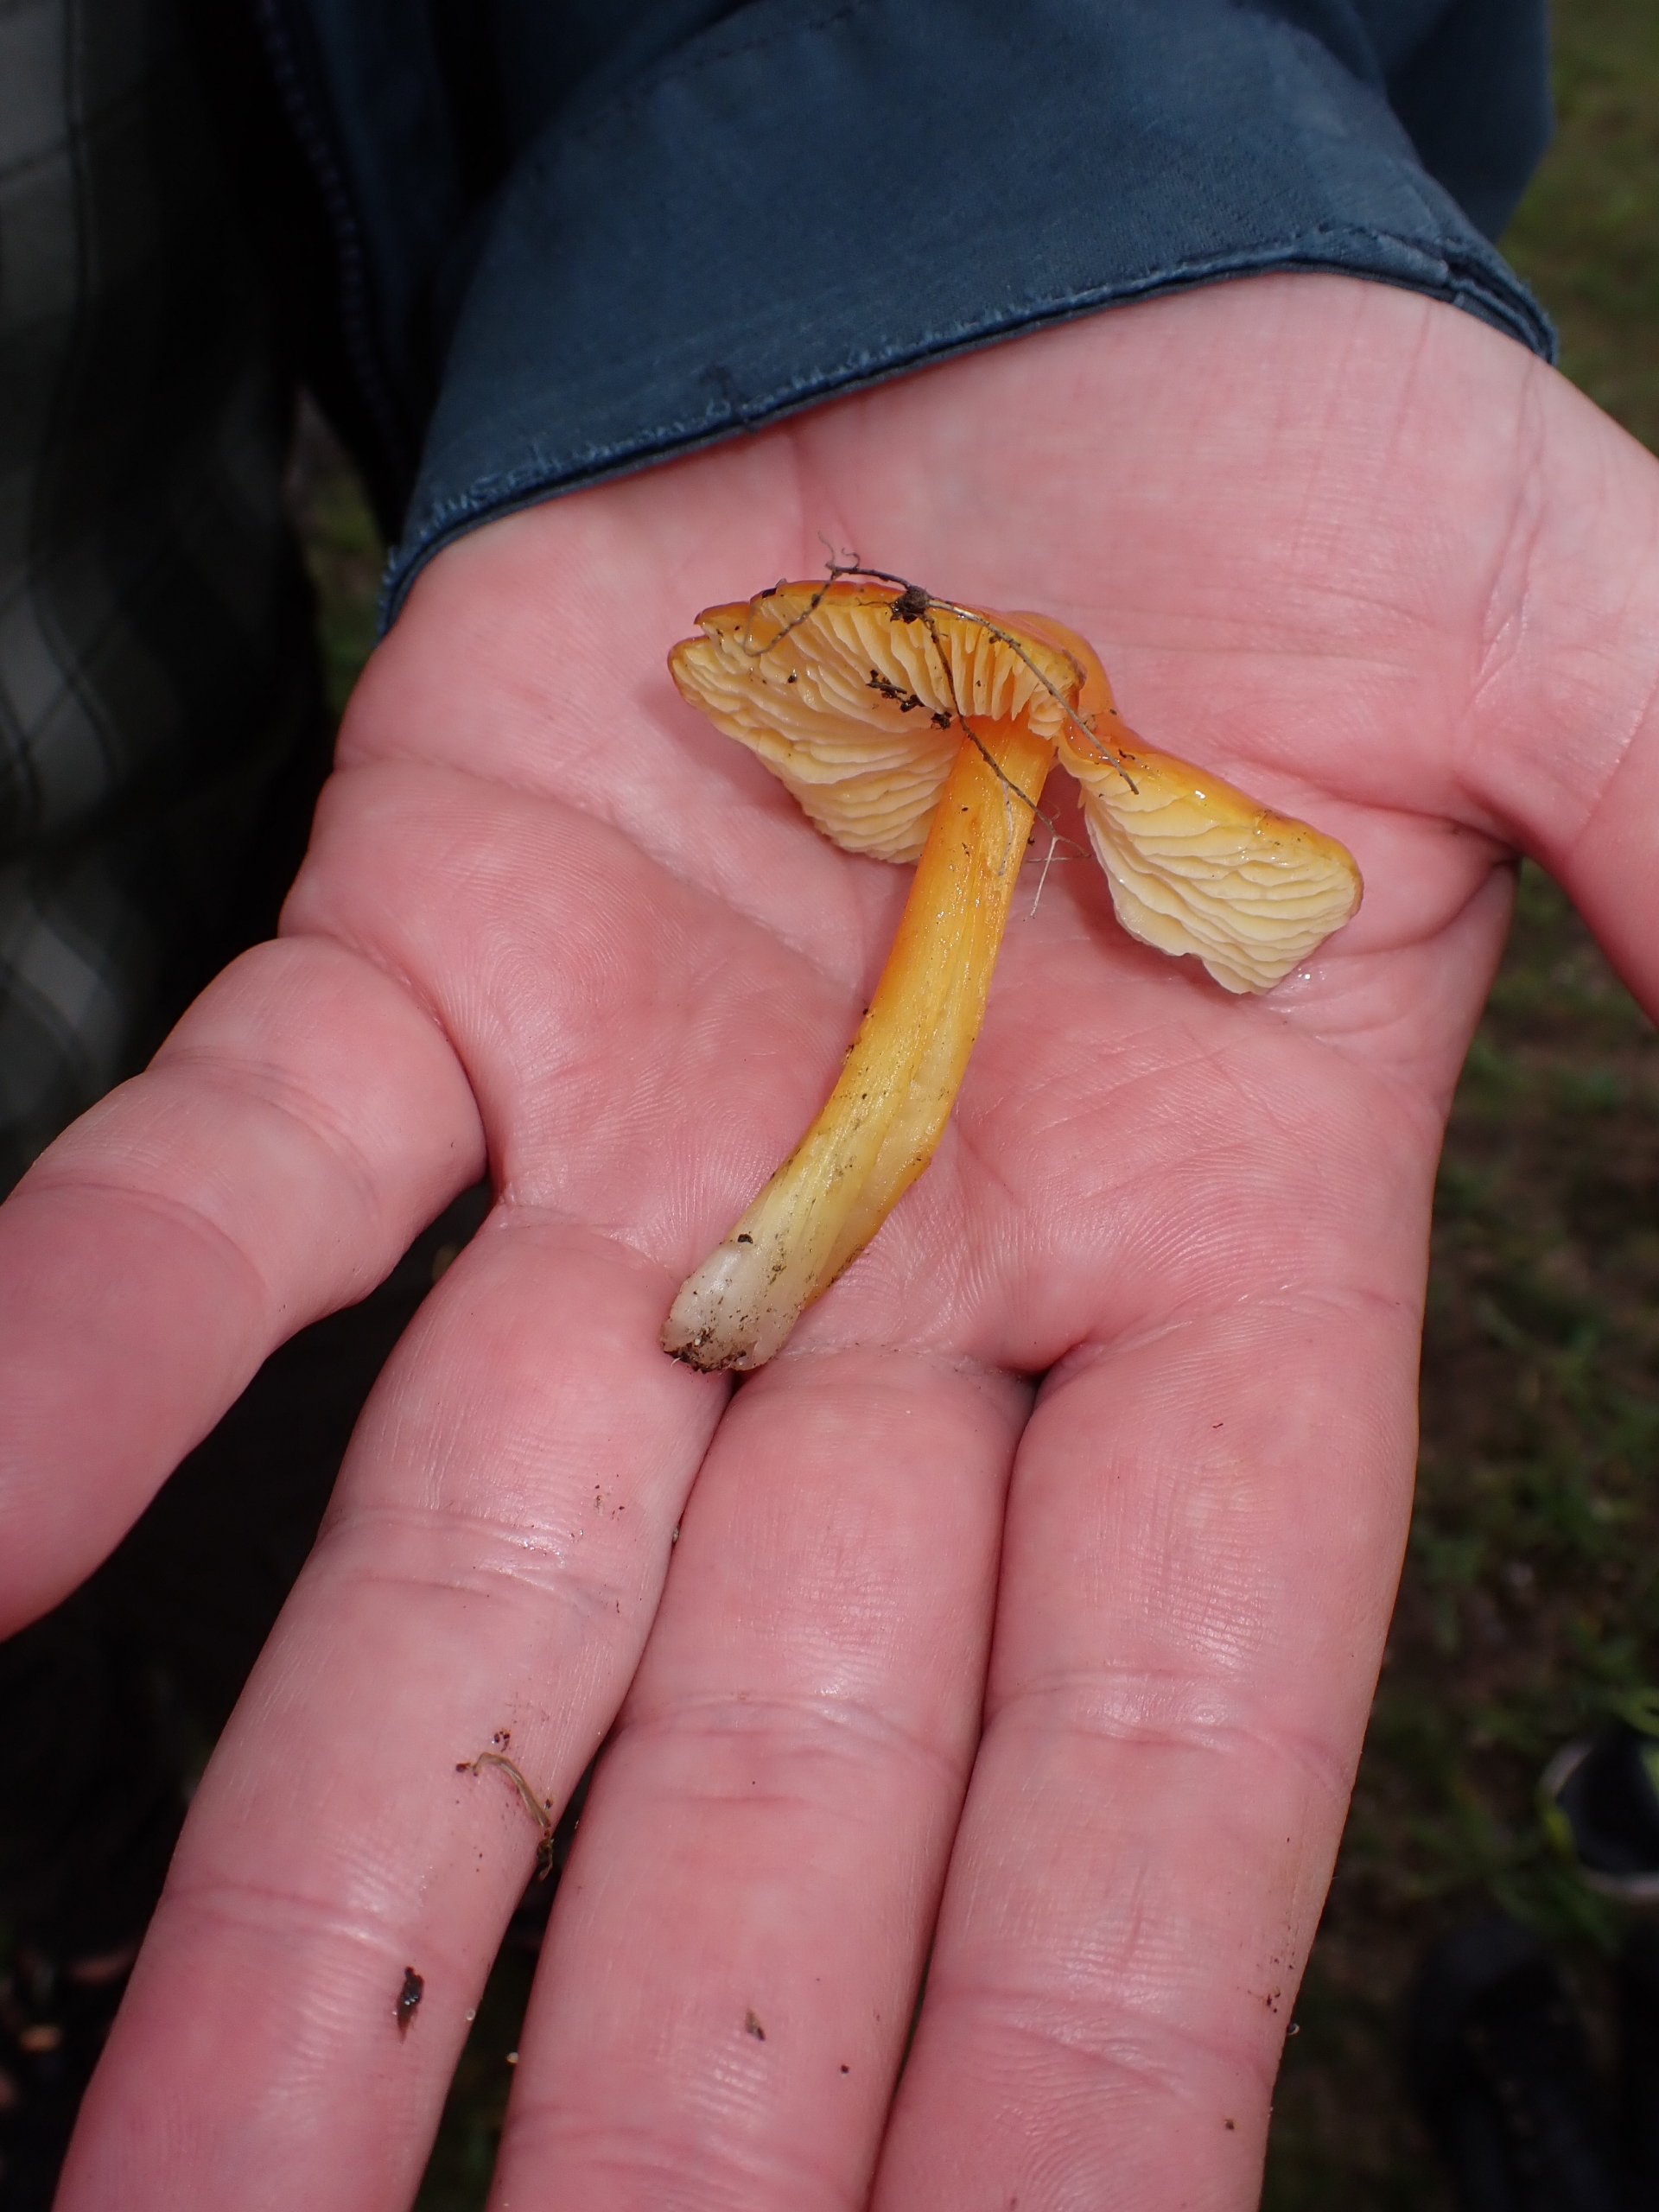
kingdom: Fungi
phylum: Basidiomycota
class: Agaricomycetes
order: Agaricales
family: Hygrophoraceae
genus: Hygrocybe
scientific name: Hygrocybe acutoconica
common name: Konrads vokshat
